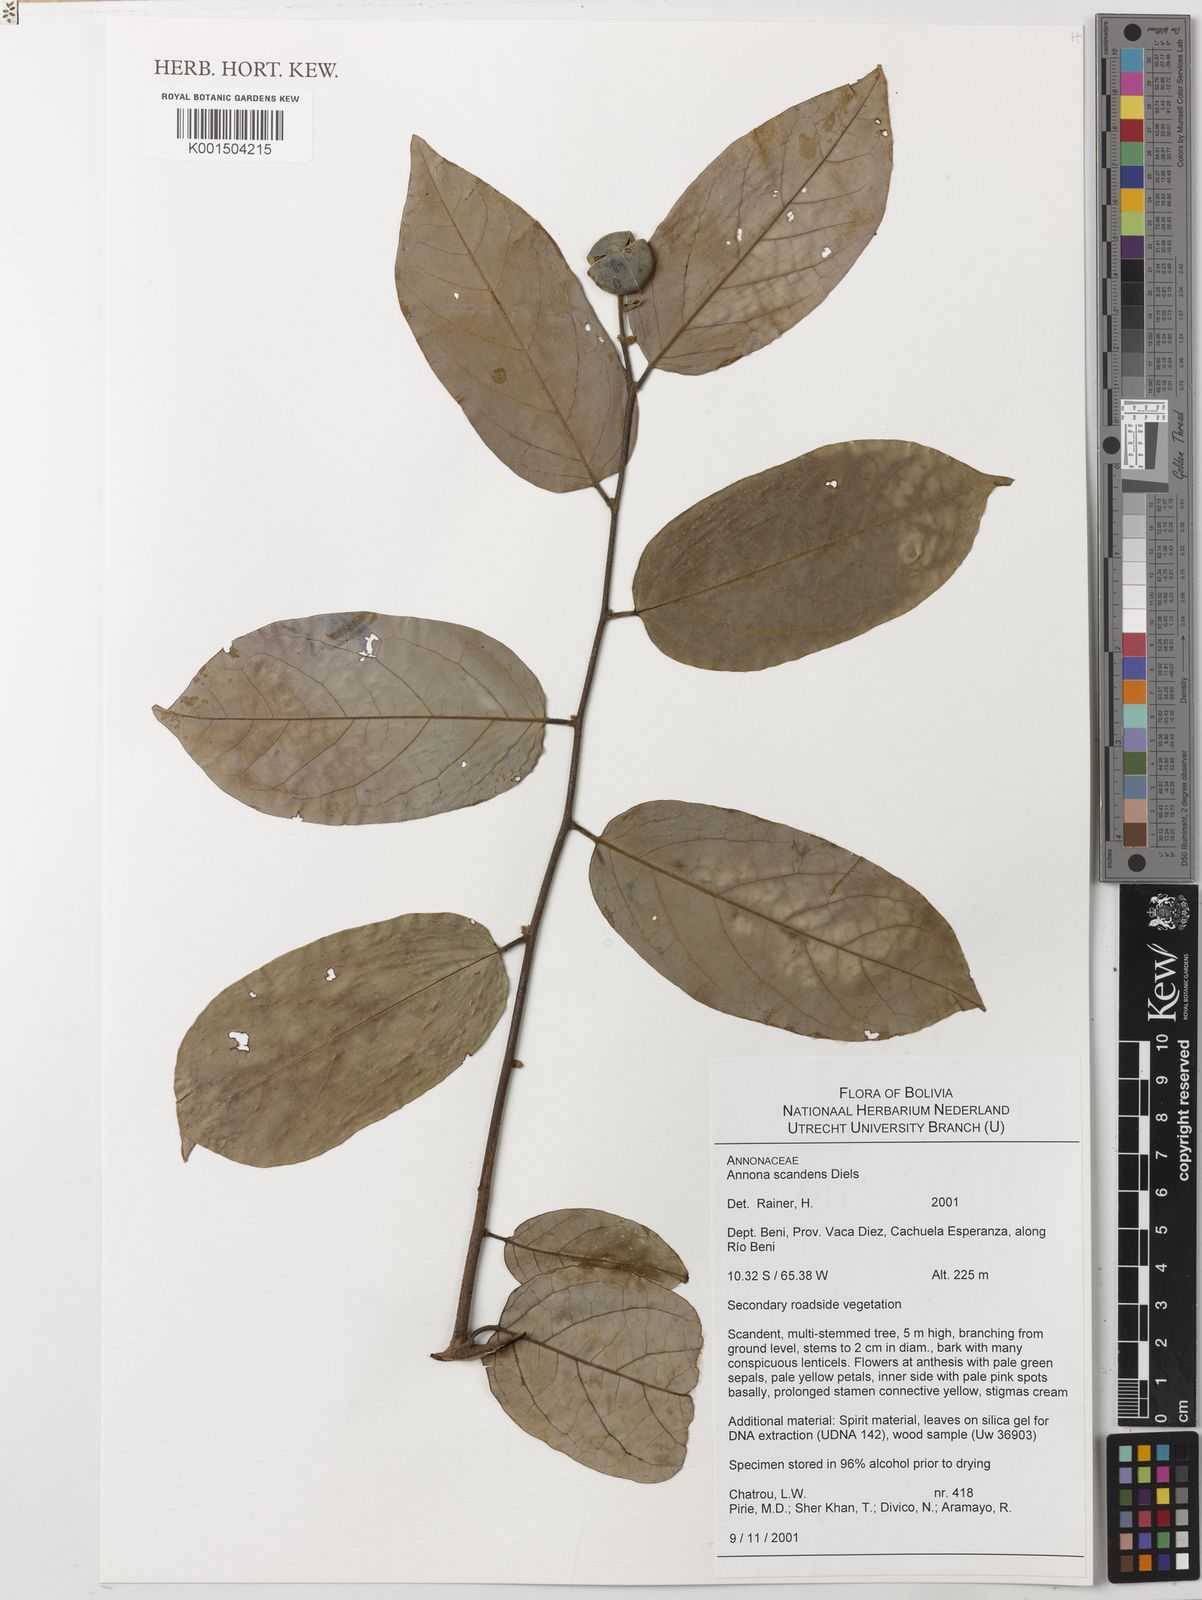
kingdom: Plantae
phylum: Tracheophyta
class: Magnoliopsida
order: Magnoliales
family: Annonaceae
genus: Annona
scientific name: Annona scandens
